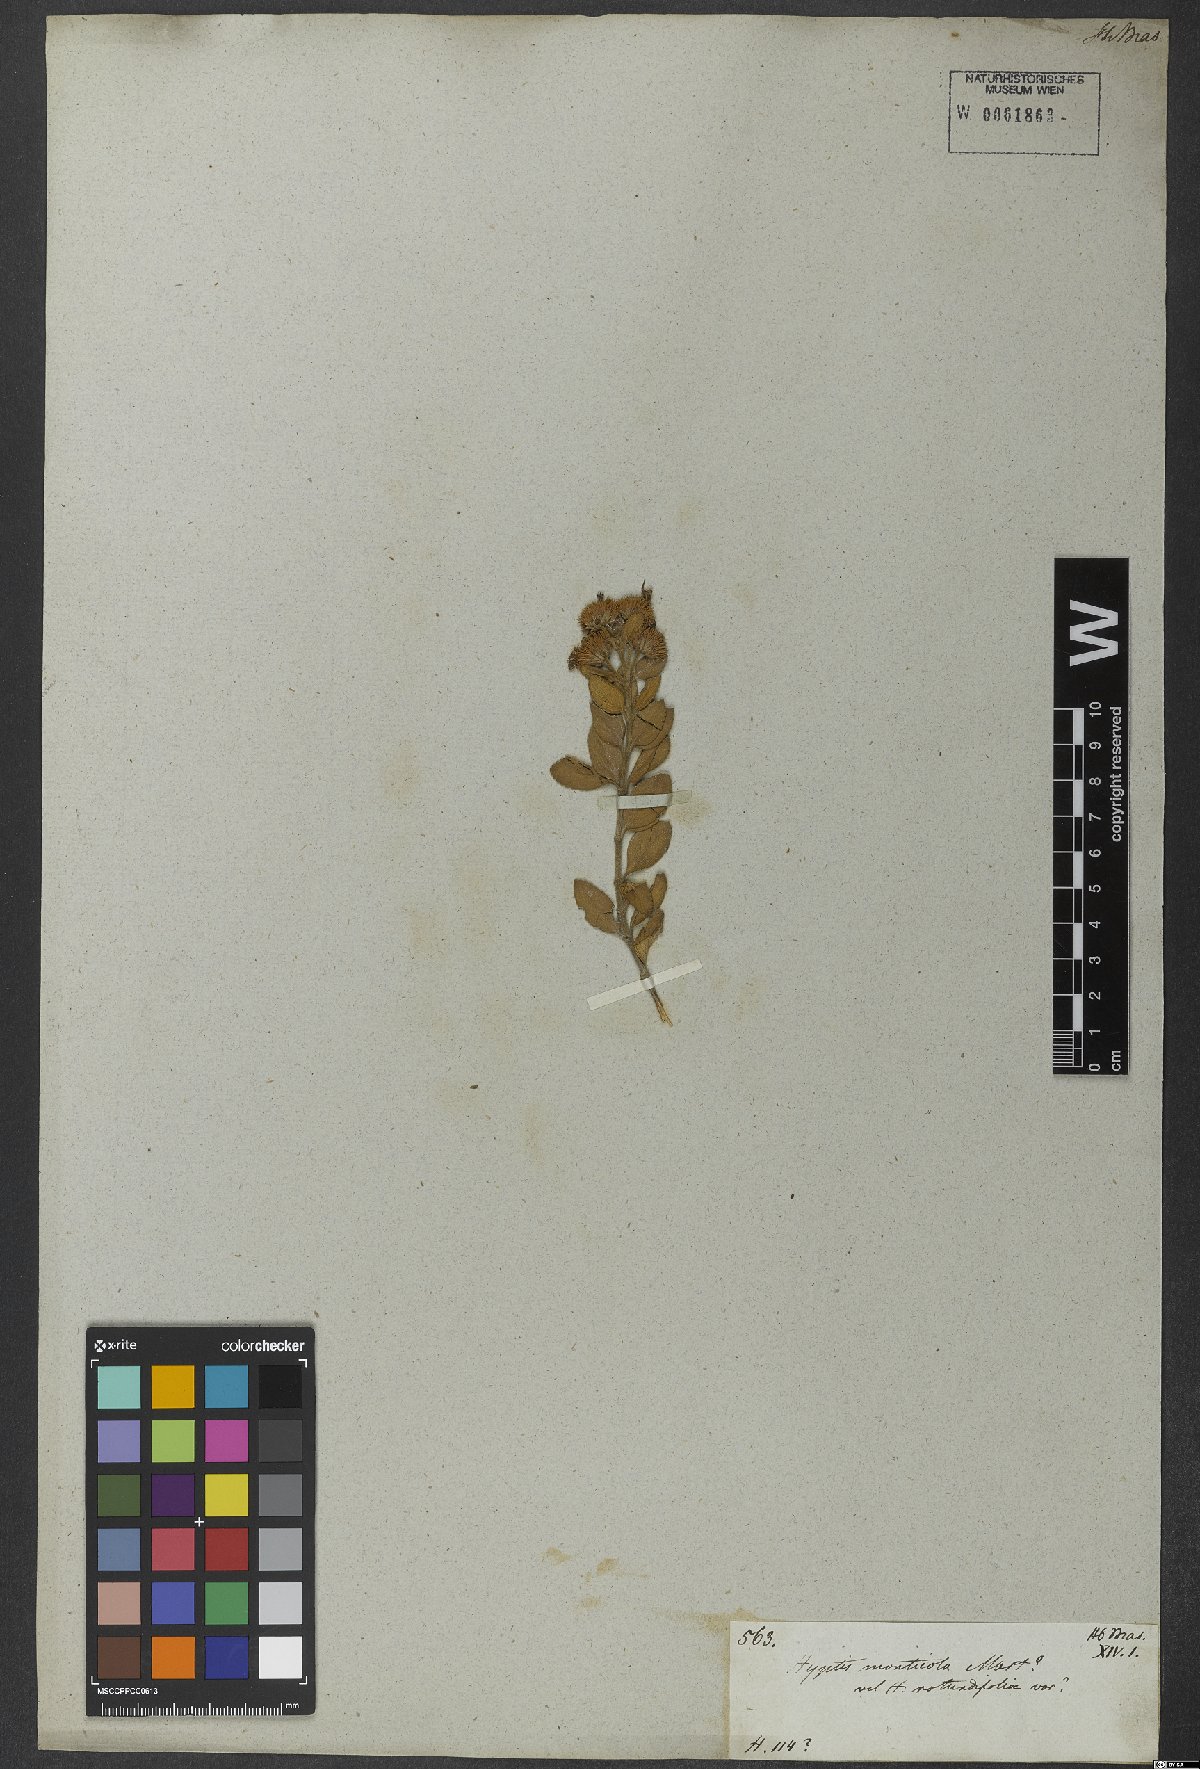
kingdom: Plantae
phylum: Tracheophyta
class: Magnoliopsida
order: Lamiales
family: Lamiaceae
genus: Hyptis
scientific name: Hyptis monticola
